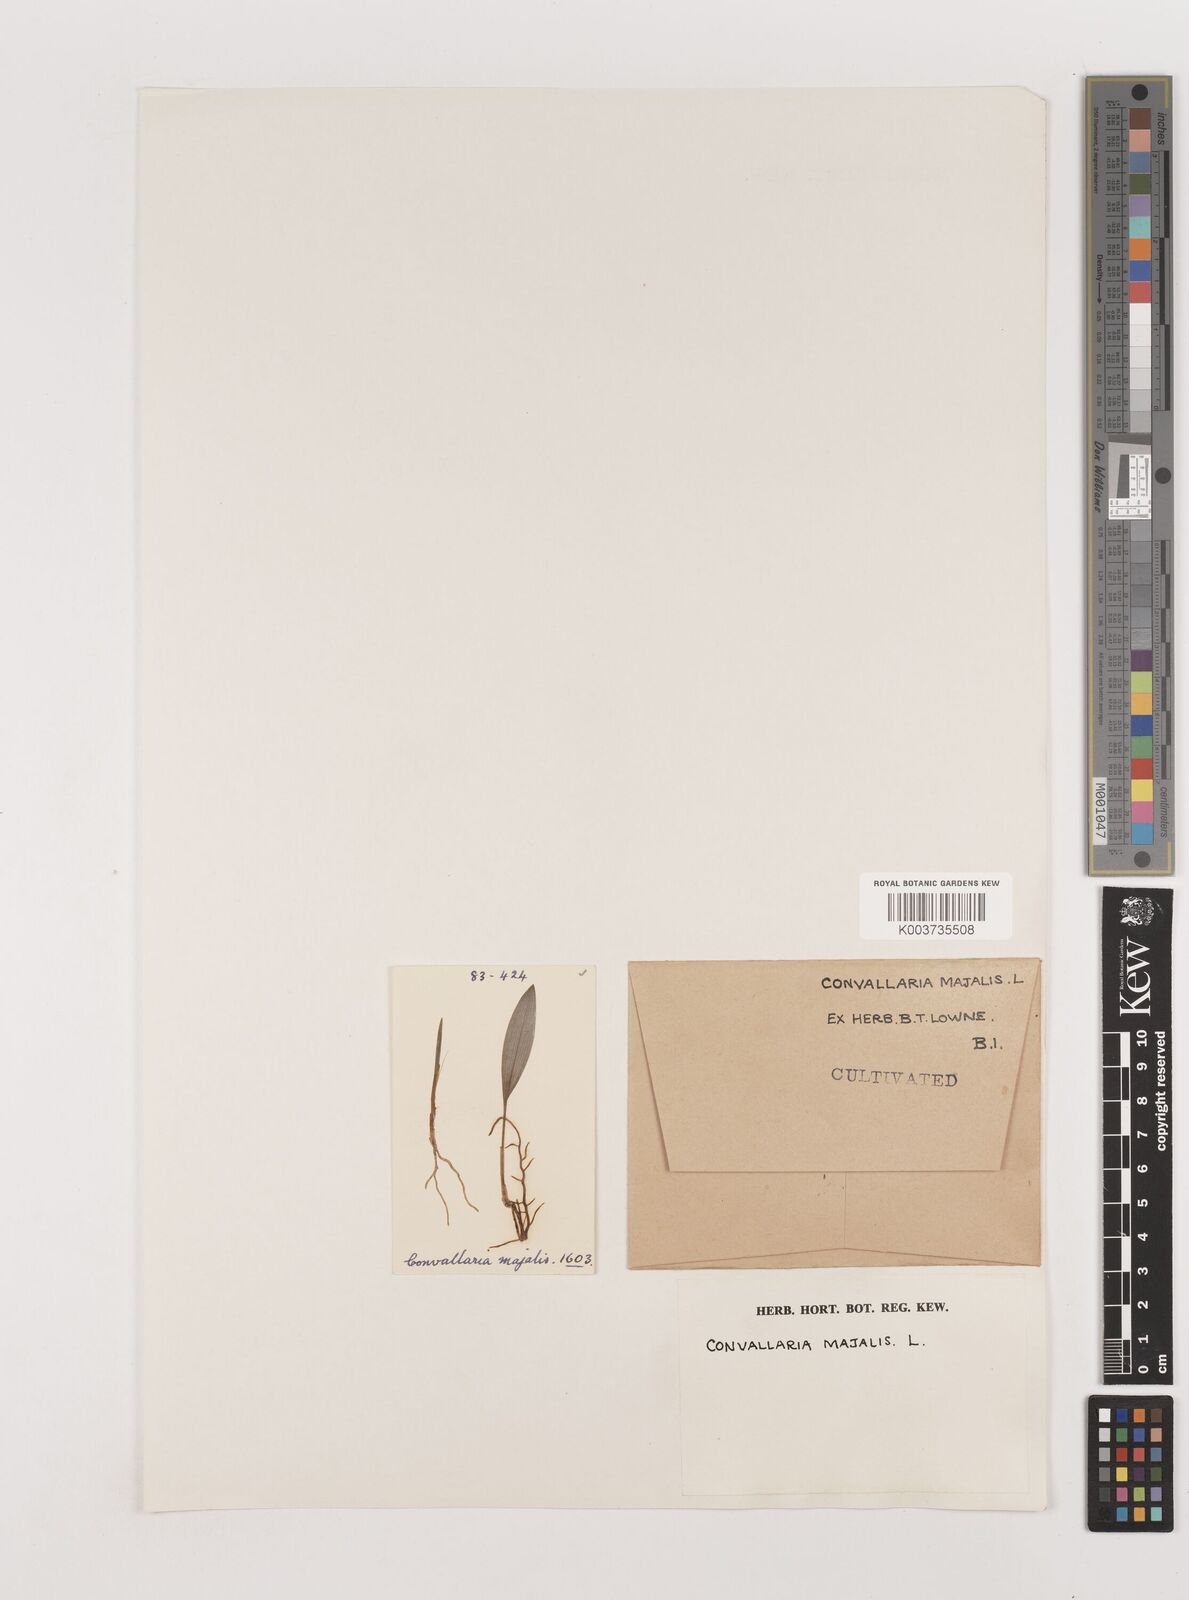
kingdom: Plantae
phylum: Tracheophyta
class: Liliopsida
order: Asparagales
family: Asparagaceae
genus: Convallaria
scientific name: Convallaria majalis
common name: Lily-of-the-valley
